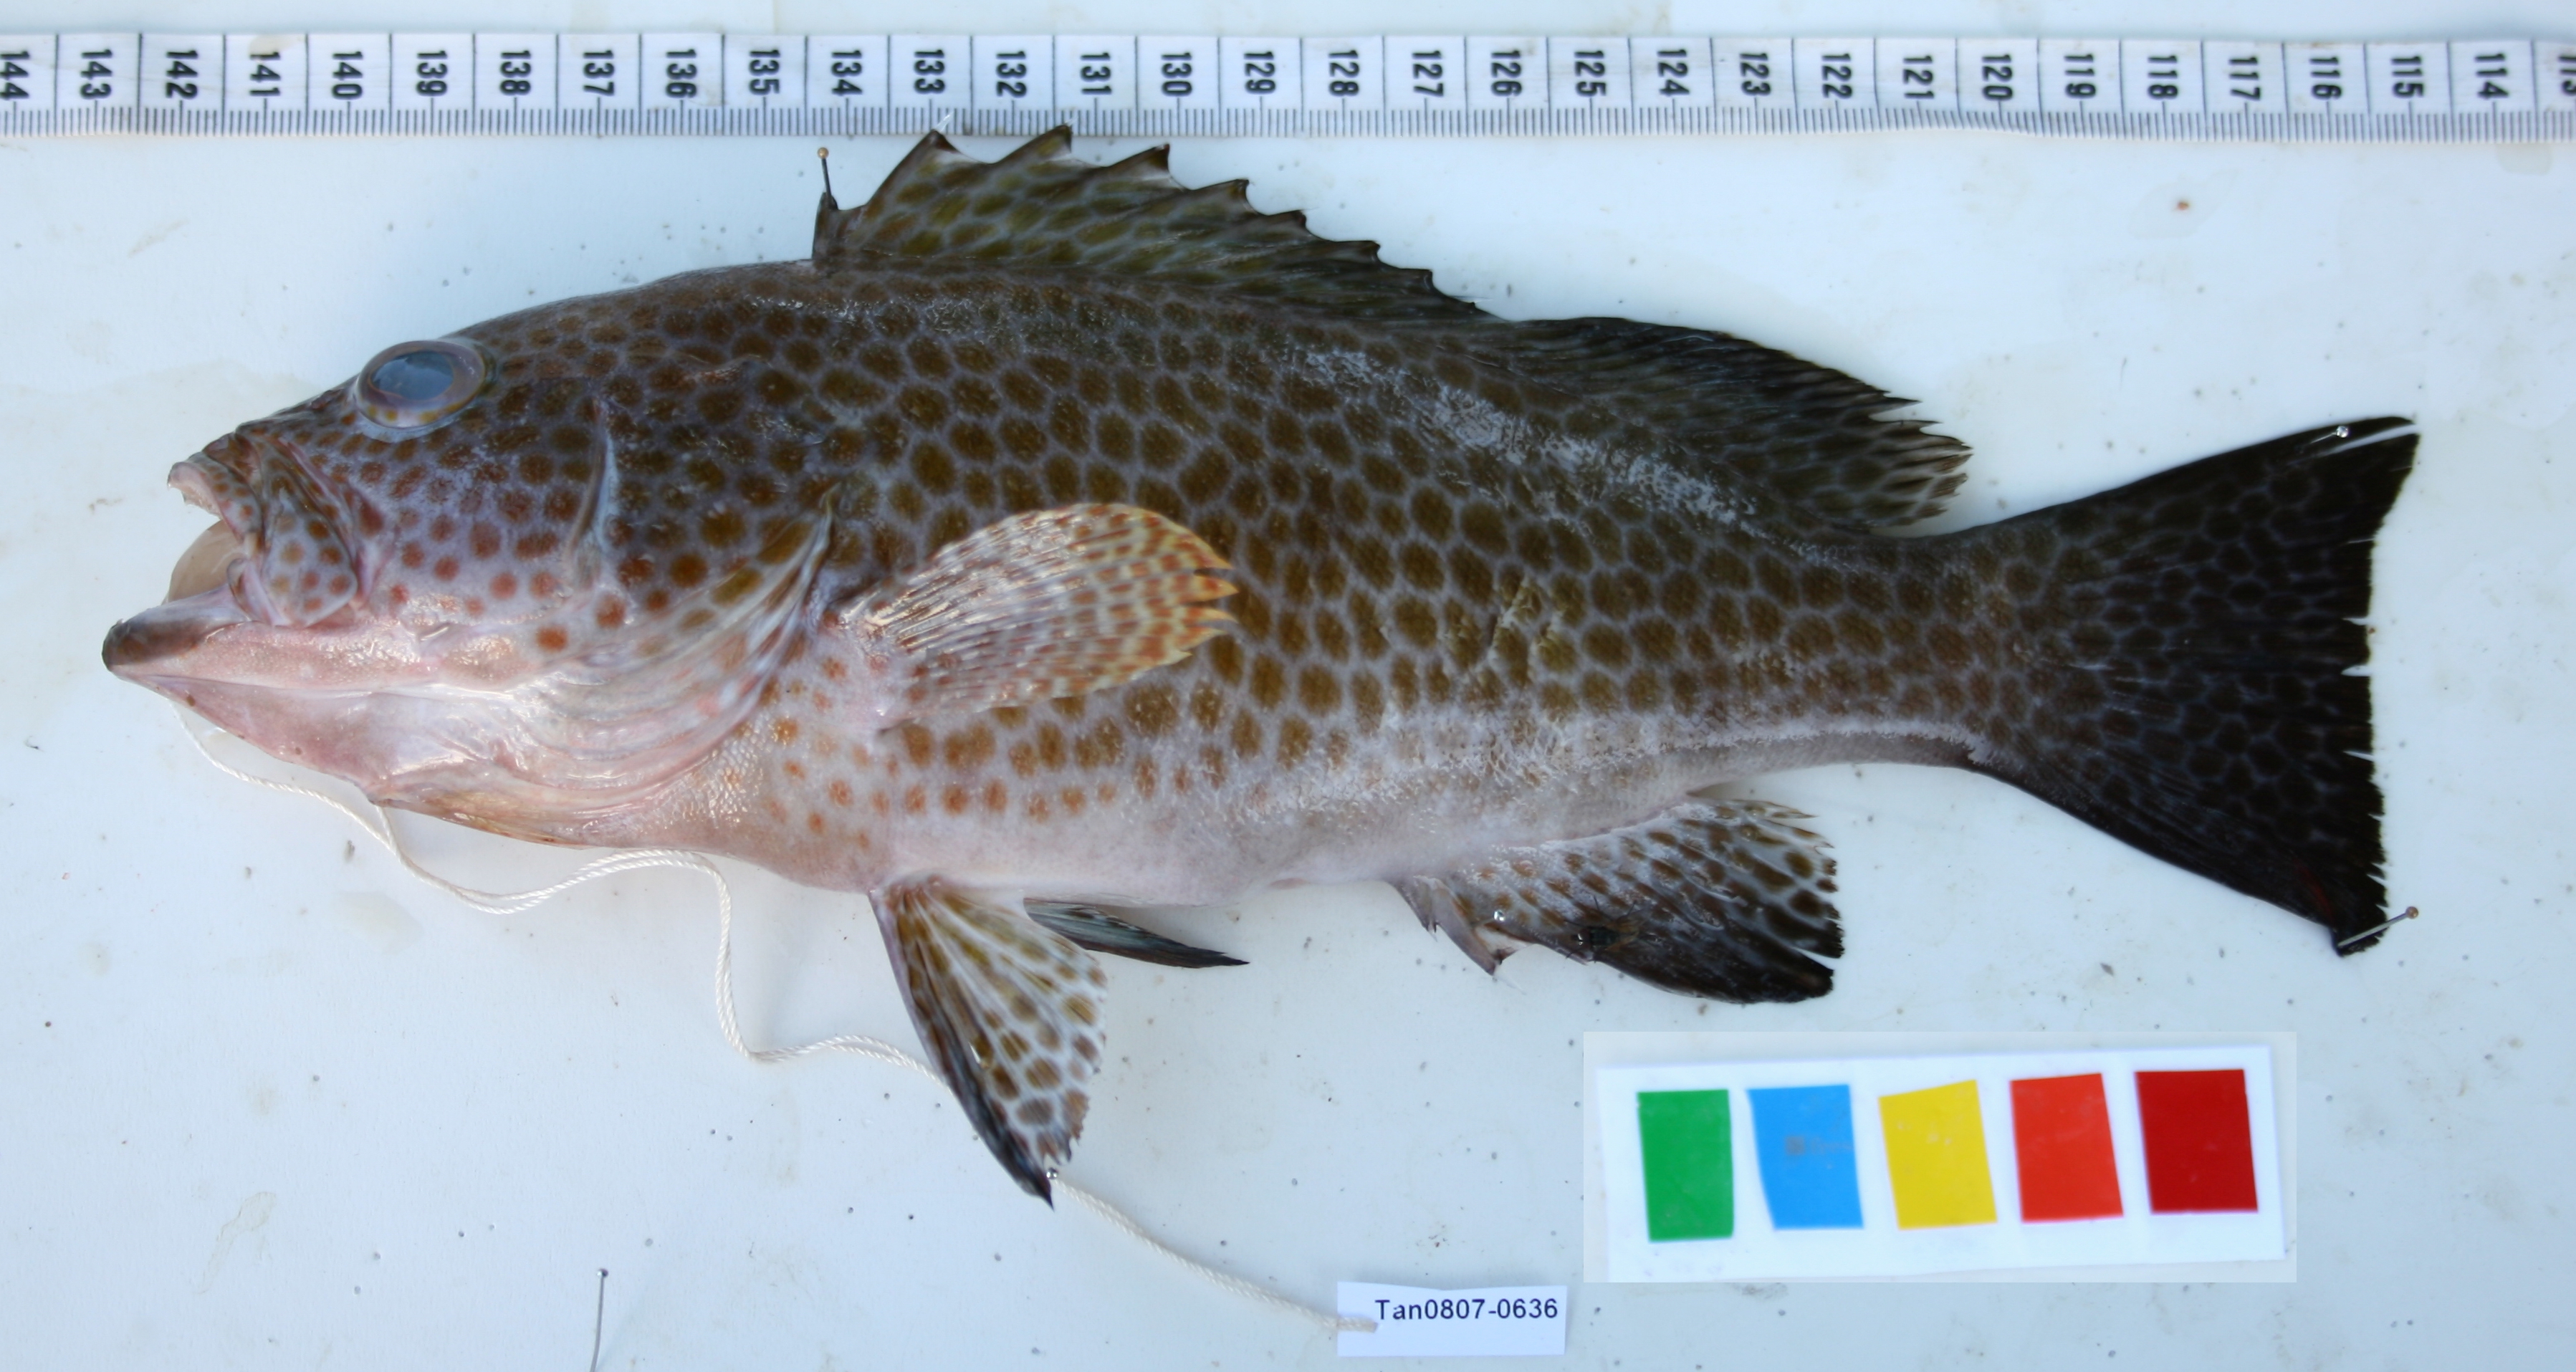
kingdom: Animalia
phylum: Chordata
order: Perciformes
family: Serranidae
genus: Epinephelus
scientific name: Epinephelus areolatus
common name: Areolate grouper
